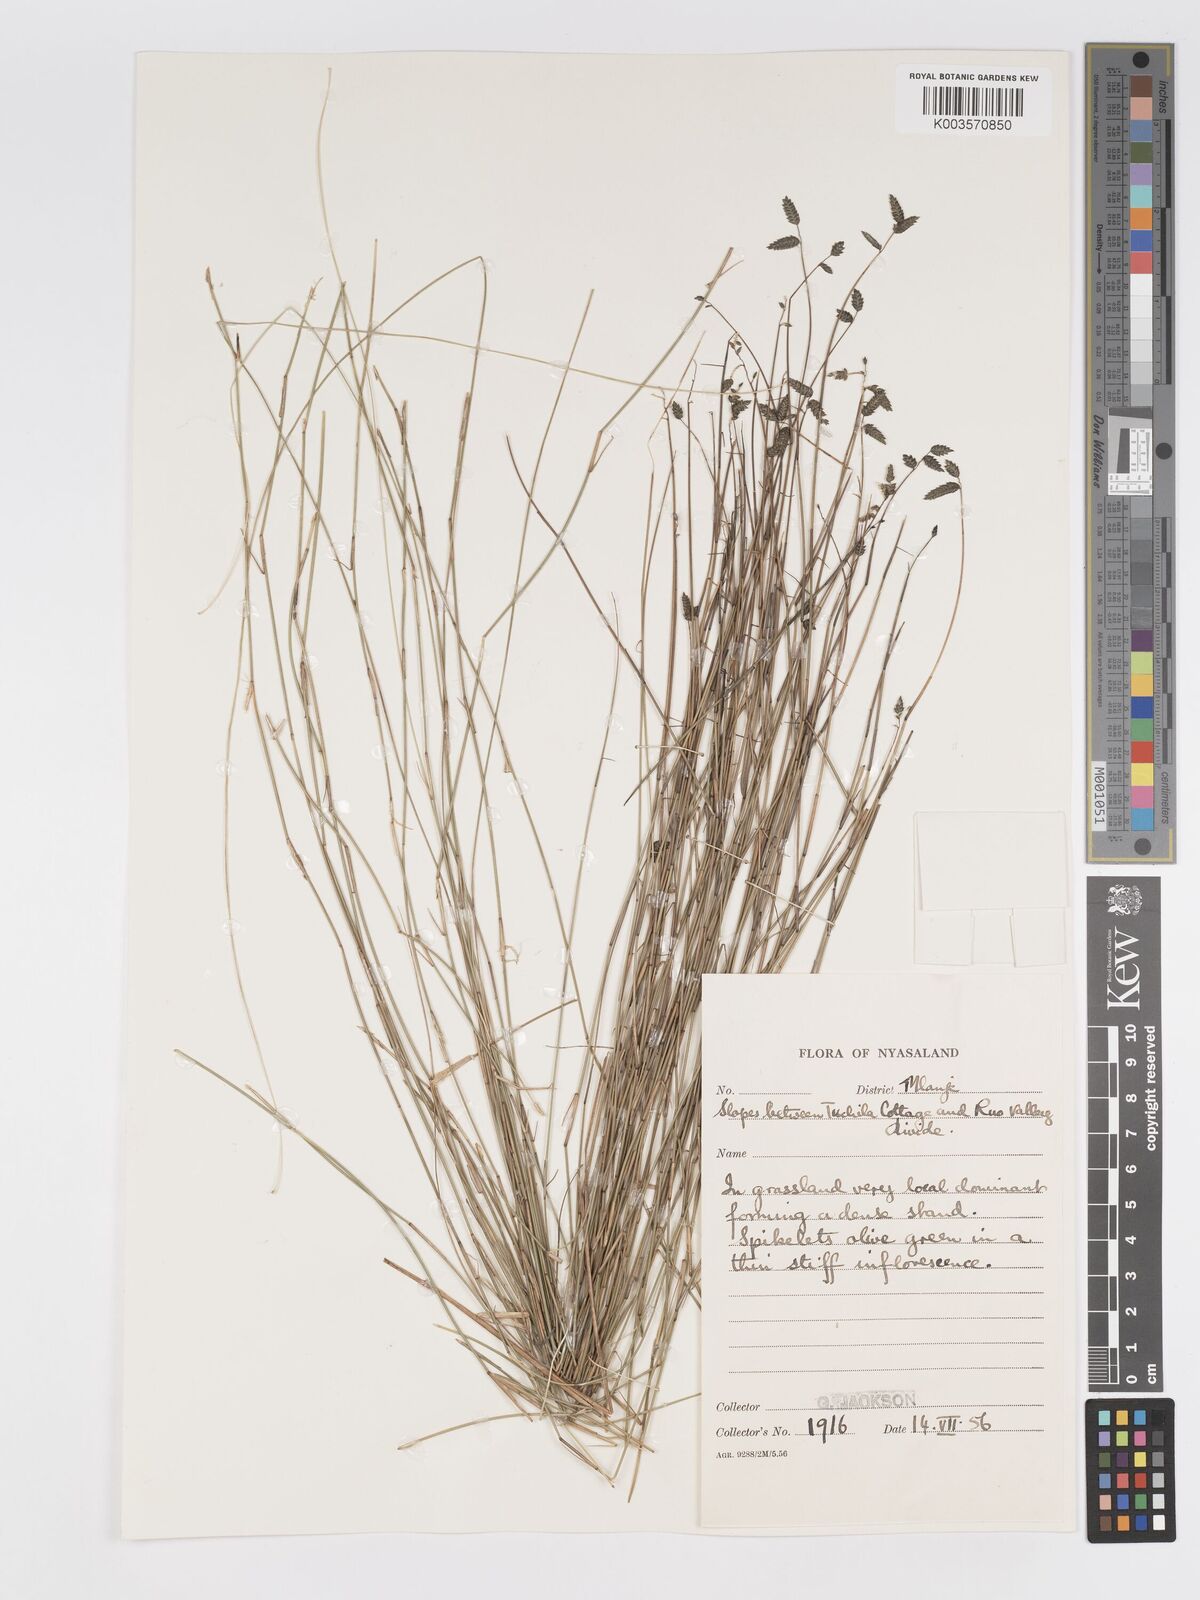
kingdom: Plantae
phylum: Tracheophyta
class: Liliopsida
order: Poales
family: Poaceae
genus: Eragrostis
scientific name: Eragrostis volkensii
